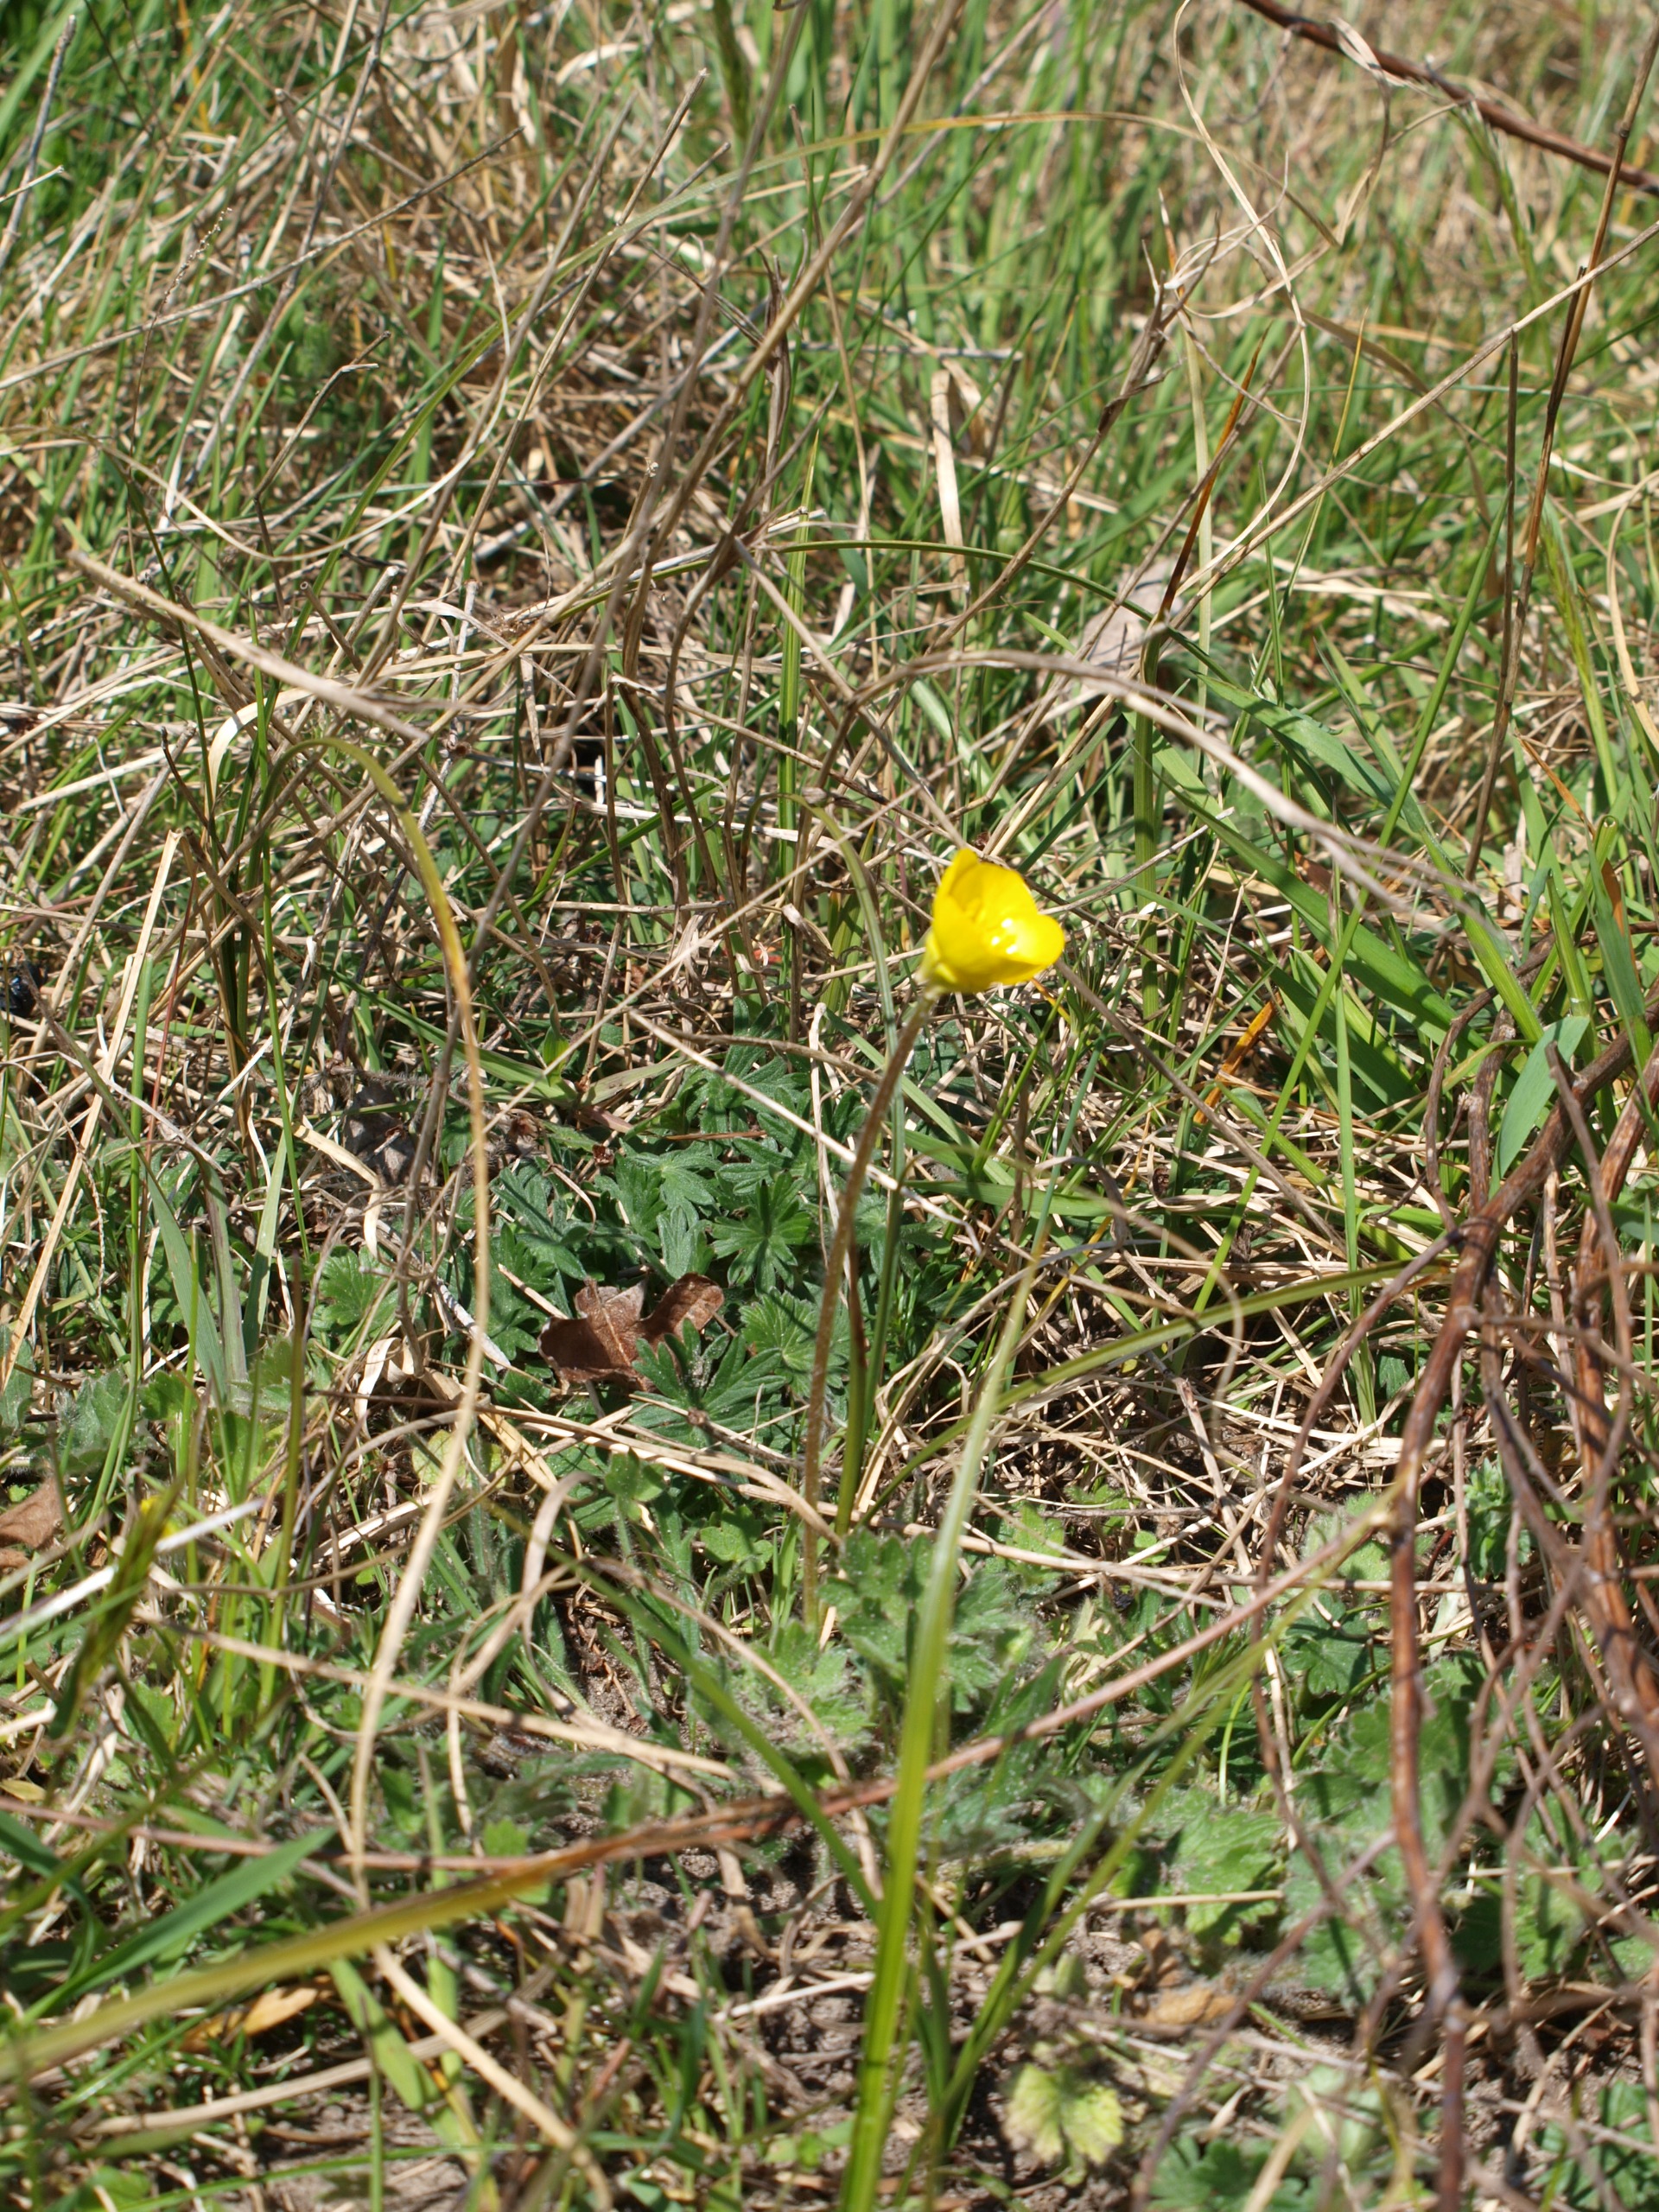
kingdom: Plantae
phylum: Tracheophyta
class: Magnoliopsida
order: Ranunculales
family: Ranunculaceae
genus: Ranunculus
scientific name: Ranunculus bulbosus
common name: Knold-ranunkel
